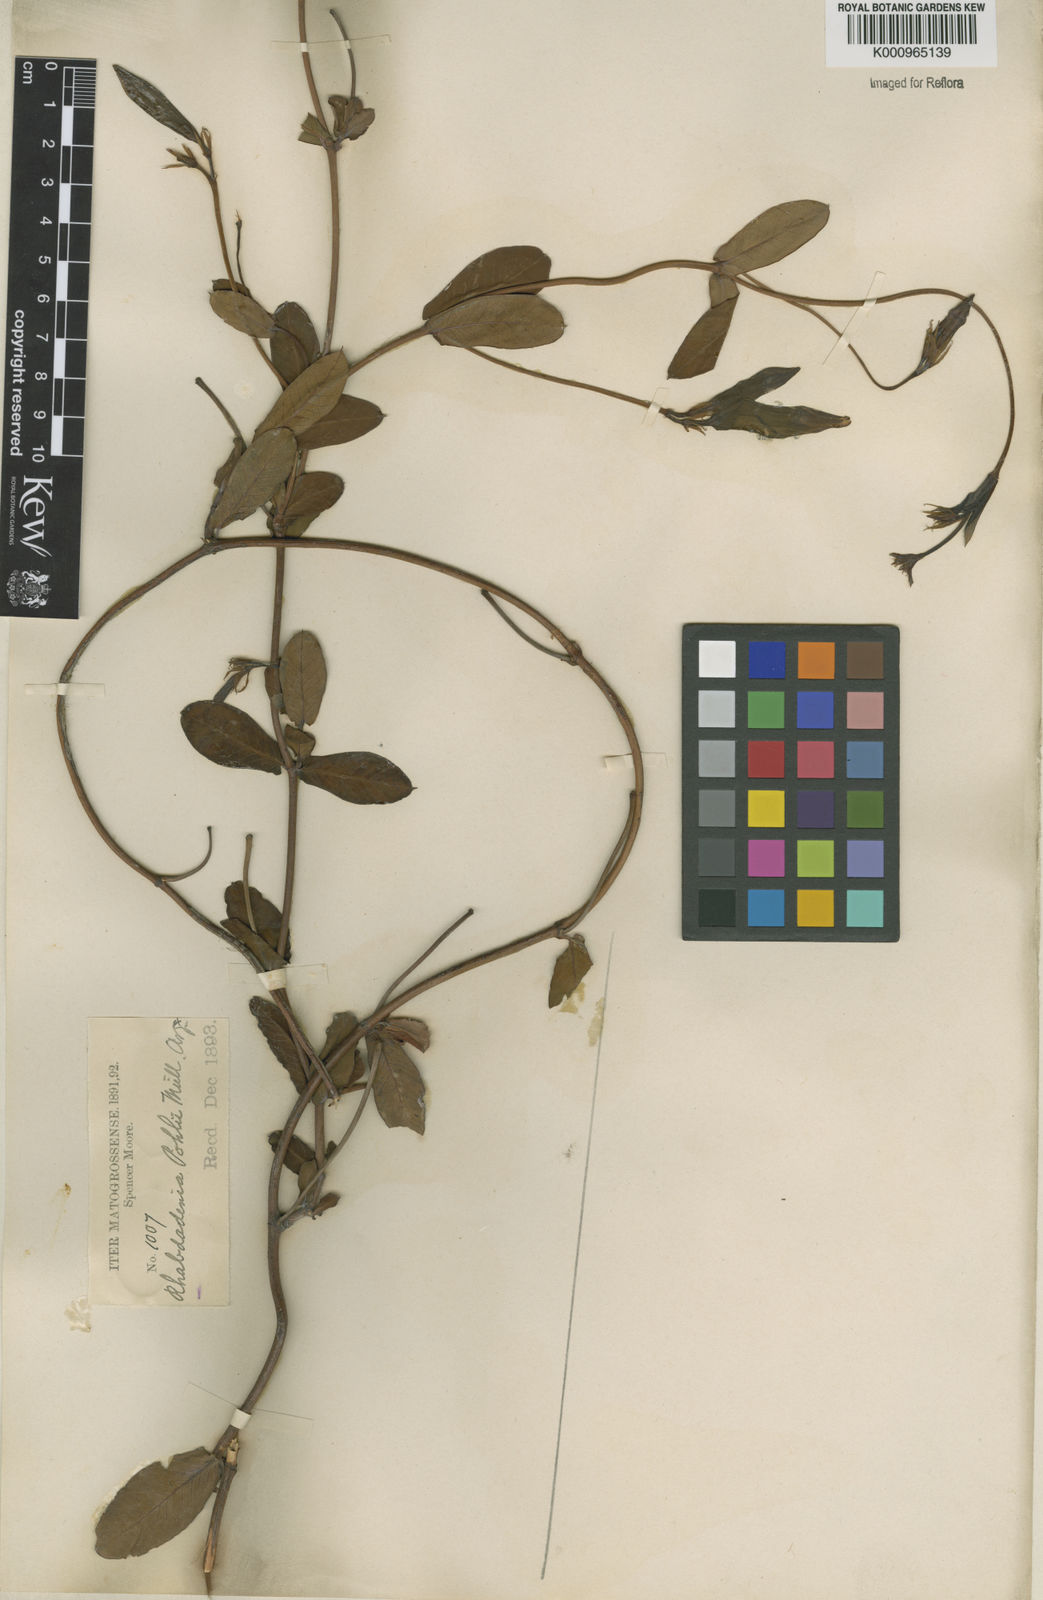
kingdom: Plantae
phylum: Tracheophyta
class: Magnoliopsida
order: Gentianales
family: Apocynaceae
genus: Rhabdadenia
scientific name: Rhabdadenia madida
